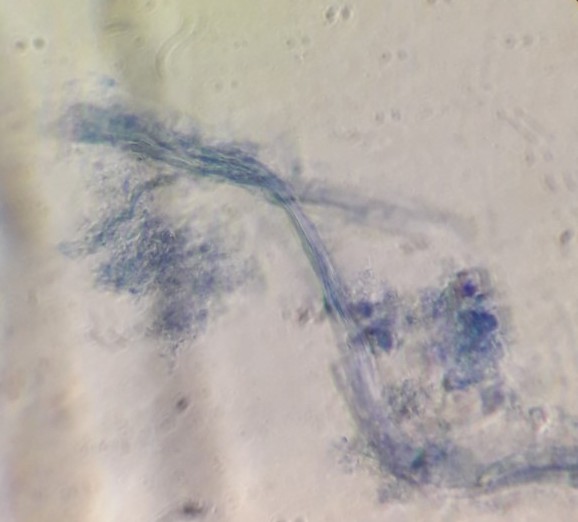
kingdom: Fungi
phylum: Ascomycota
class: Pezizomycetes
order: Pezizales
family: Otideaceae
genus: Otidea
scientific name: Otidea bufonia
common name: brun ørebæger
